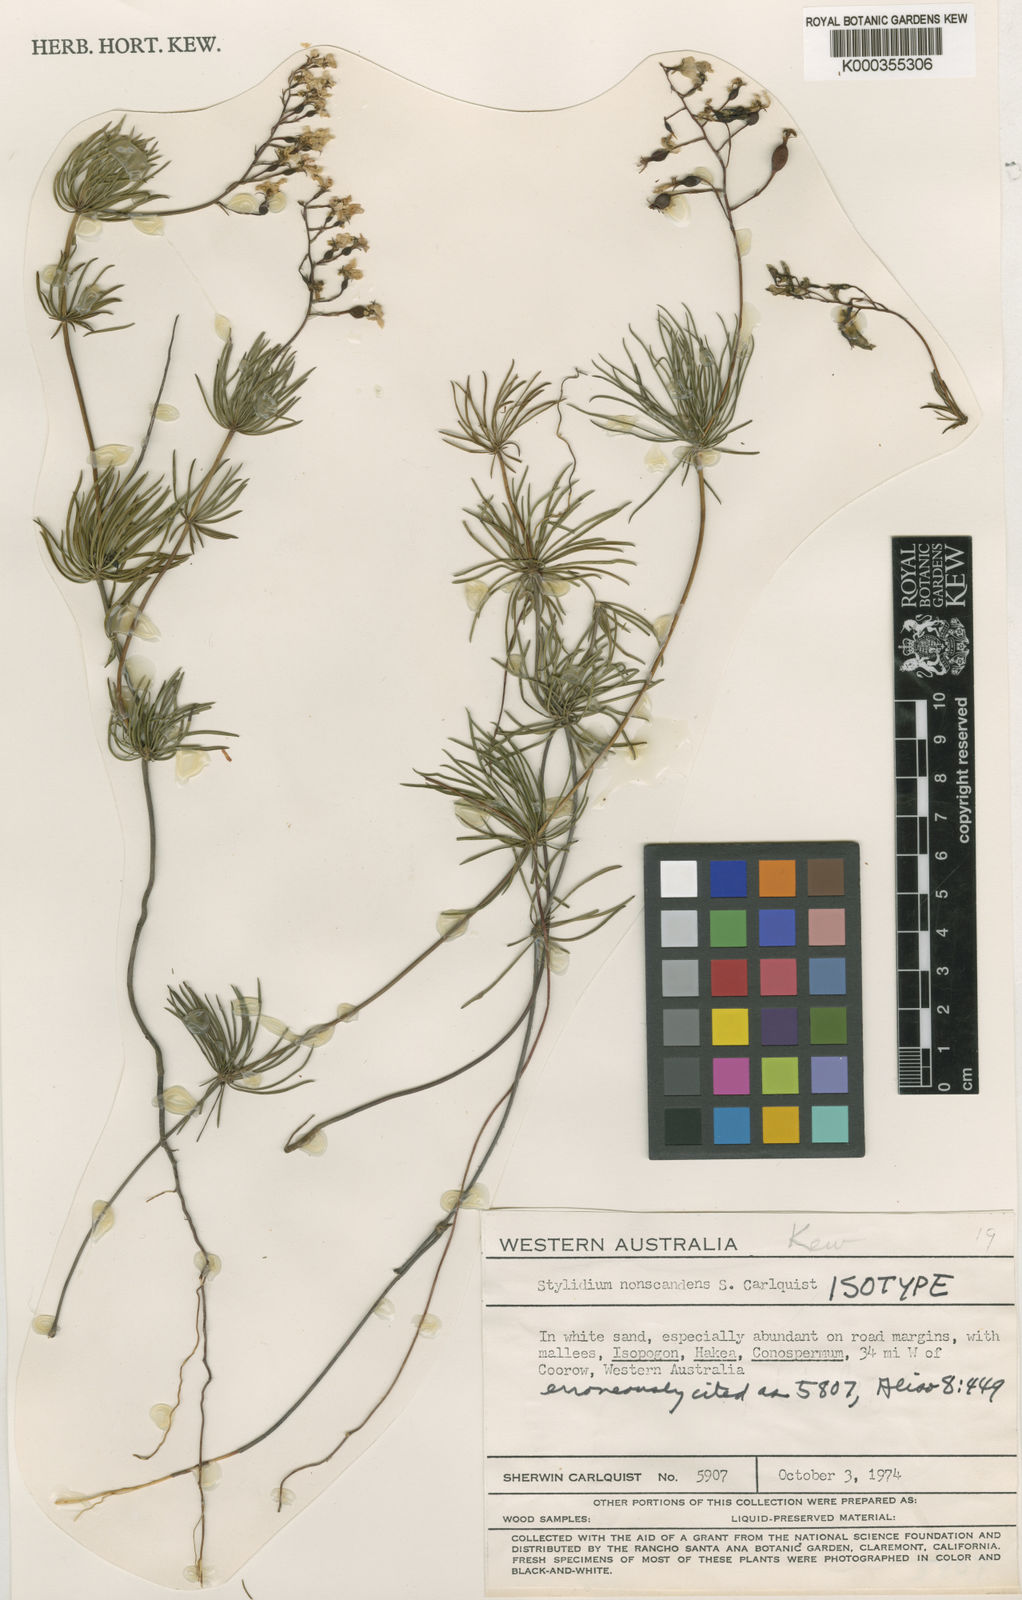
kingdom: Plantae
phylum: Tracheophyta
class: Magnoliopsida
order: Asterales
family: Stylidiaceae
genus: Stylidium
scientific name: Stylidium nonscandens
